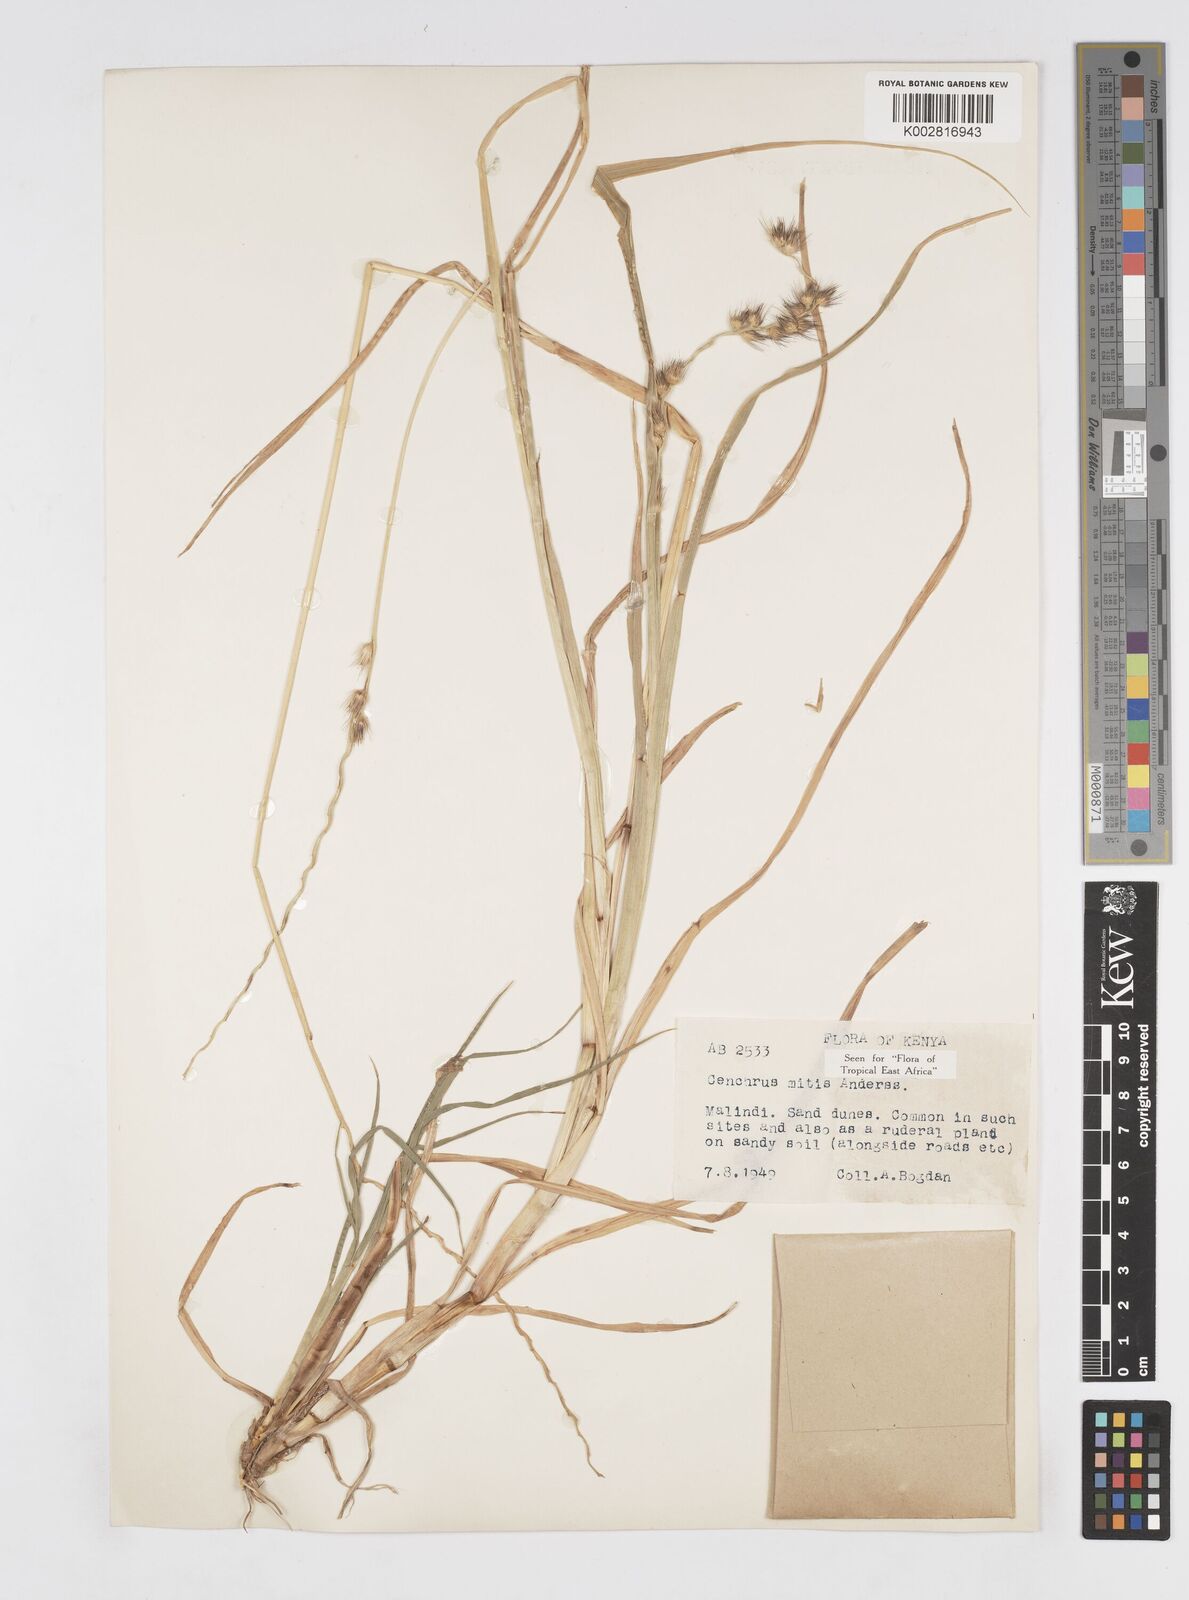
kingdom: Plantae
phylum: Tracheophyta
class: Liliopsida
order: Poales
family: Poaceae
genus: Cenchrus
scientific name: Cenchrus mitis
